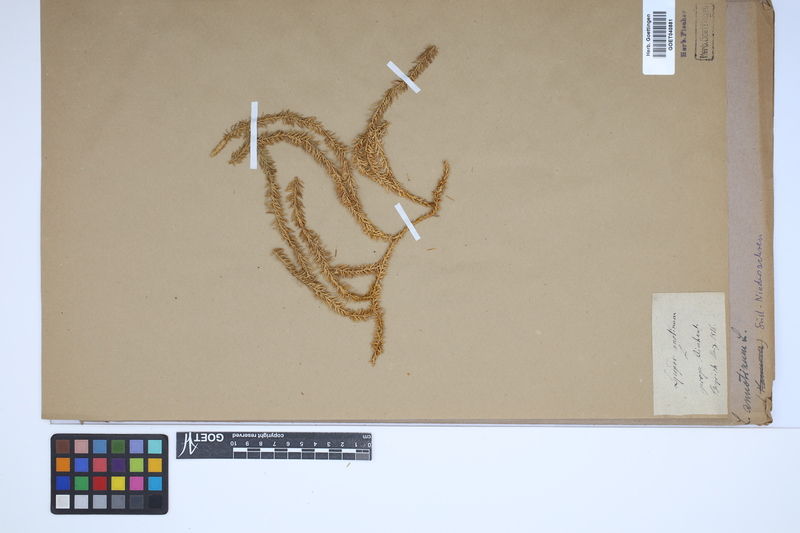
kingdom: Plantae
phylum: Tracheophyta
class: Lycopodiopsida
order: Lycopodiales
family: Lycopodiaceae
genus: Spinulum
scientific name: Spinulum annotinum
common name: Interrupted club-moss
